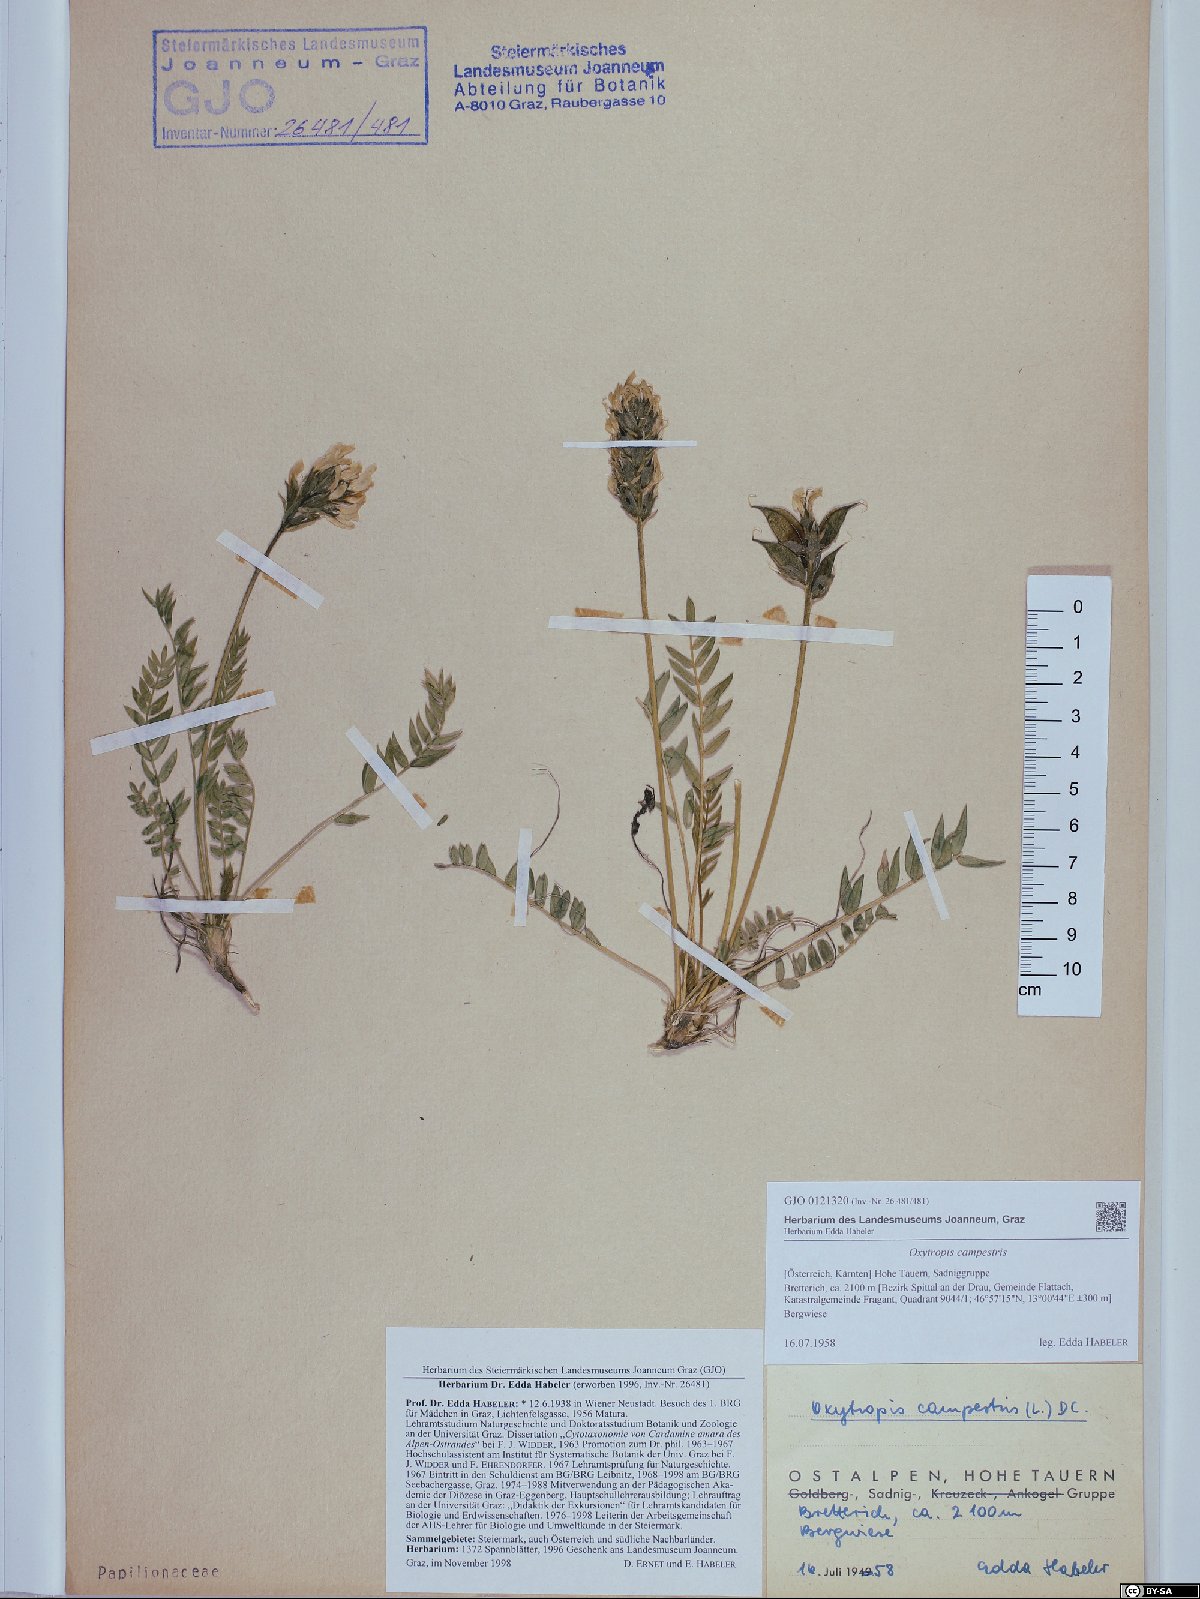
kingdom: Plantae
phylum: Tracheophyta
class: Magnoliopsida
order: Fabales
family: Fabaceae
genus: Oxytropis
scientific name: Oxytropis campestris
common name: Field locoweed
